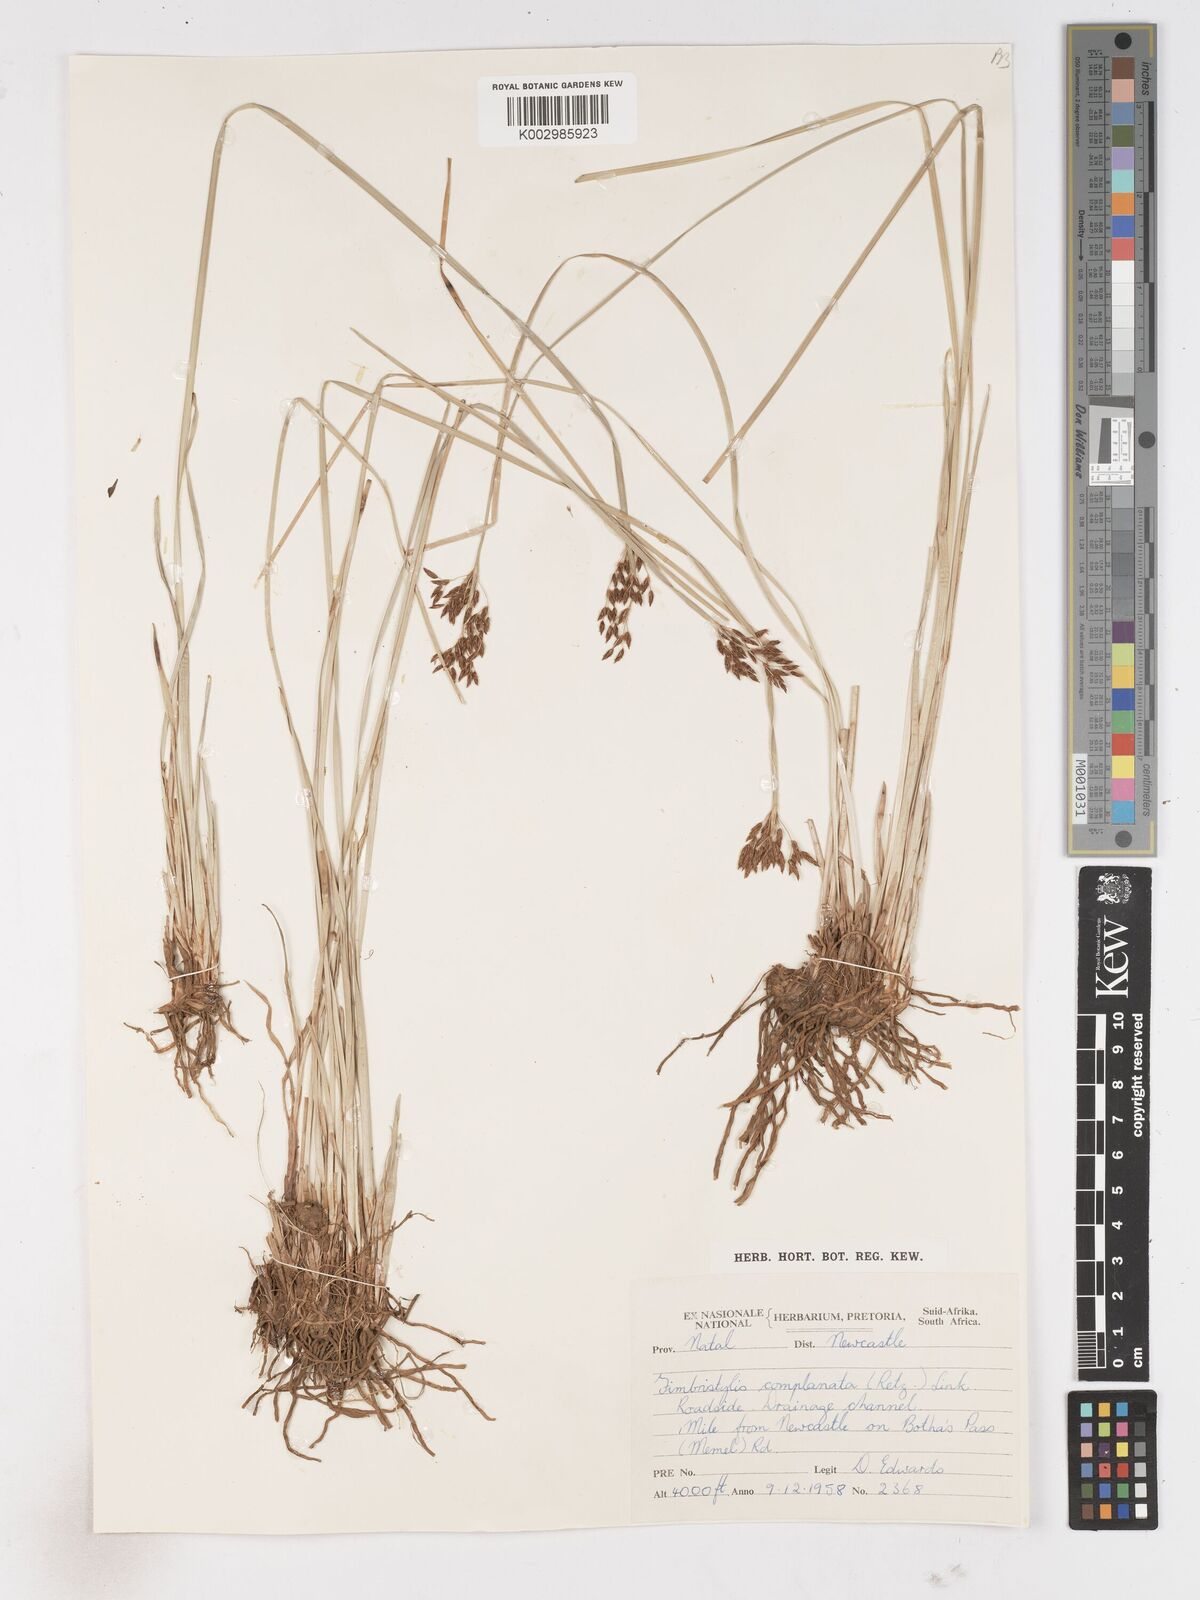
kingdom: Plantae
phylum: Tracheophyta
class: Liliopsida
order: Poales
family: Cyperaceae
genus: Fimbristylis
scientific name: Fimbristylis complanata
